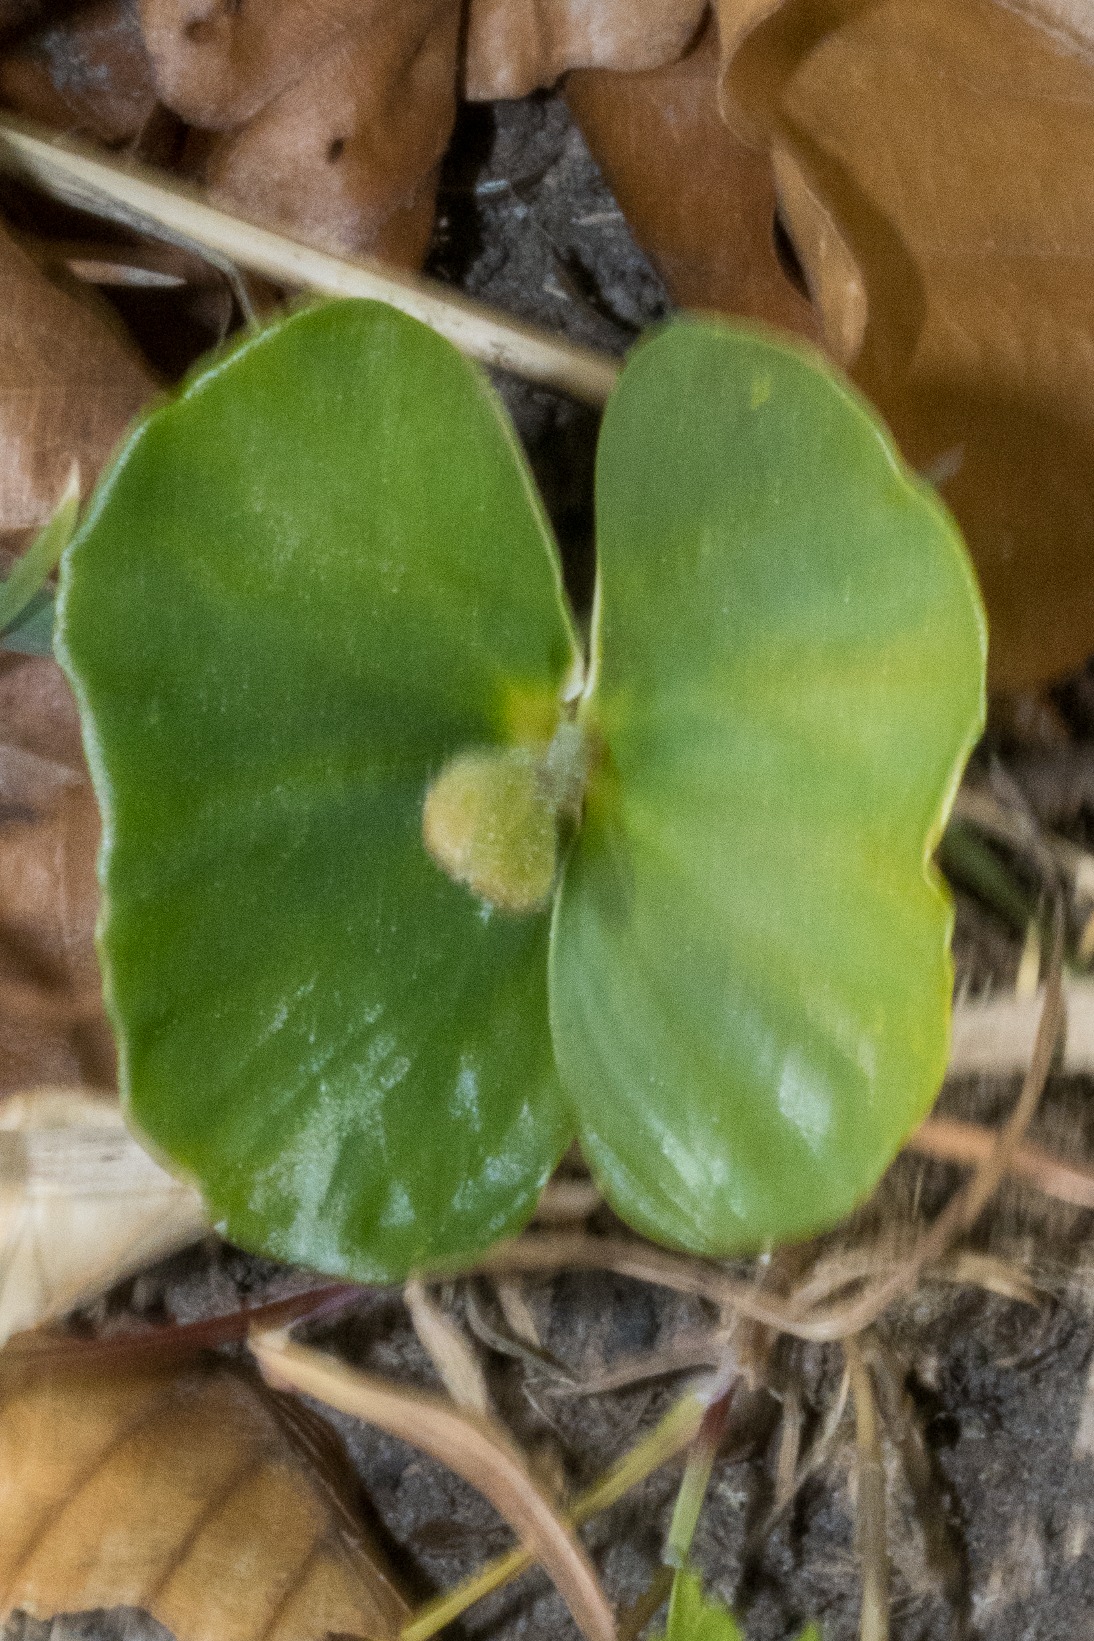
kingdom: Plantae
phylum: Tracheophyta
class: Magnoliopsida
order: Fagales
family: Fagaceae
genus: Fagus
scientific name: Fagus sylvatica
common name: Bøg
